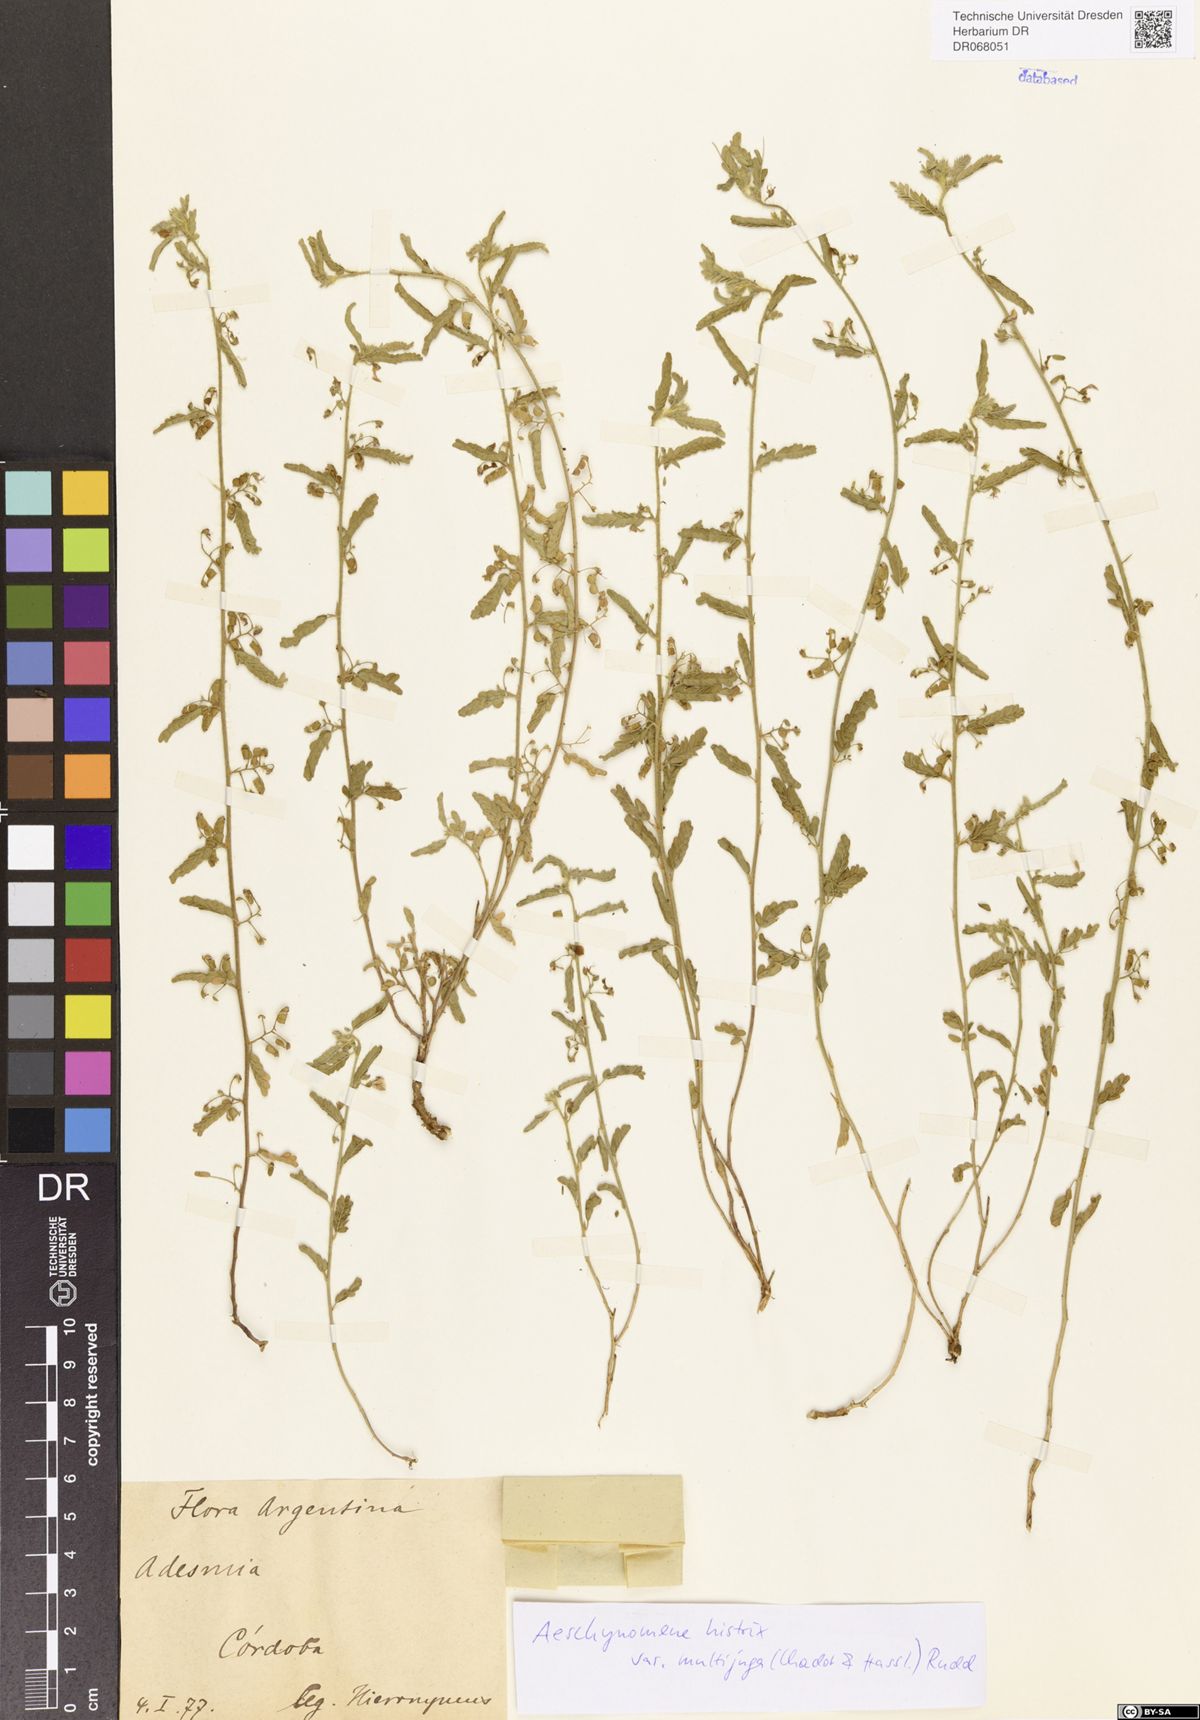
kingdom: Plantae
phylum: Tracheophyta
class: Magnoliopsida
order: Fabales
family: Fabaceae
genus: Ctenodon
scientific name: Ctenodon histrix
